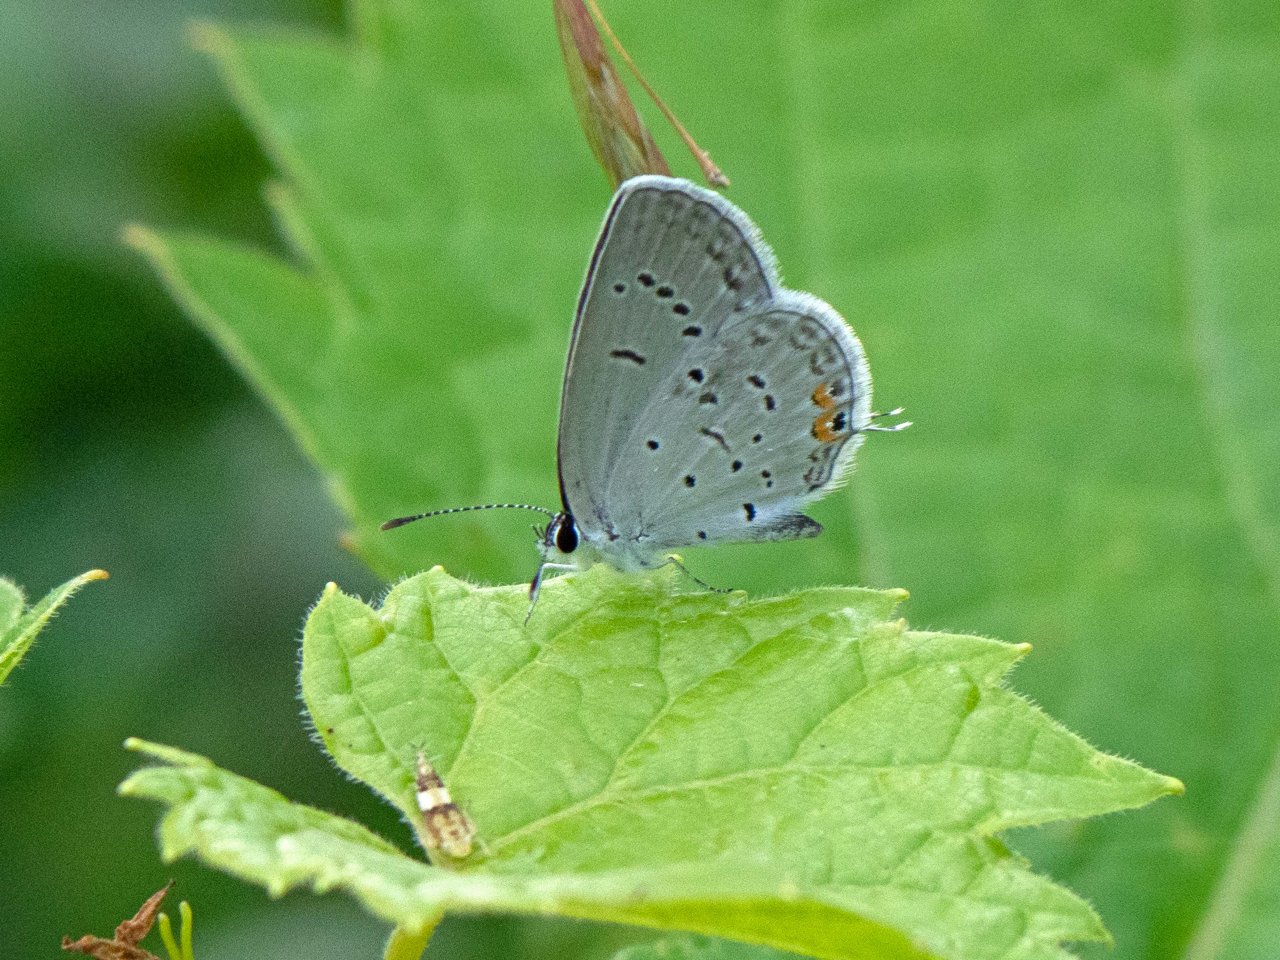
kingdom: Animalia
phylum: Arthropoda
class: Insecta
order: Lepidoptera
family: Lycaenidae
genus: Elkalyce
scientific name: Elkalyce comyntas
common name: Eastern Tailed-Blue
